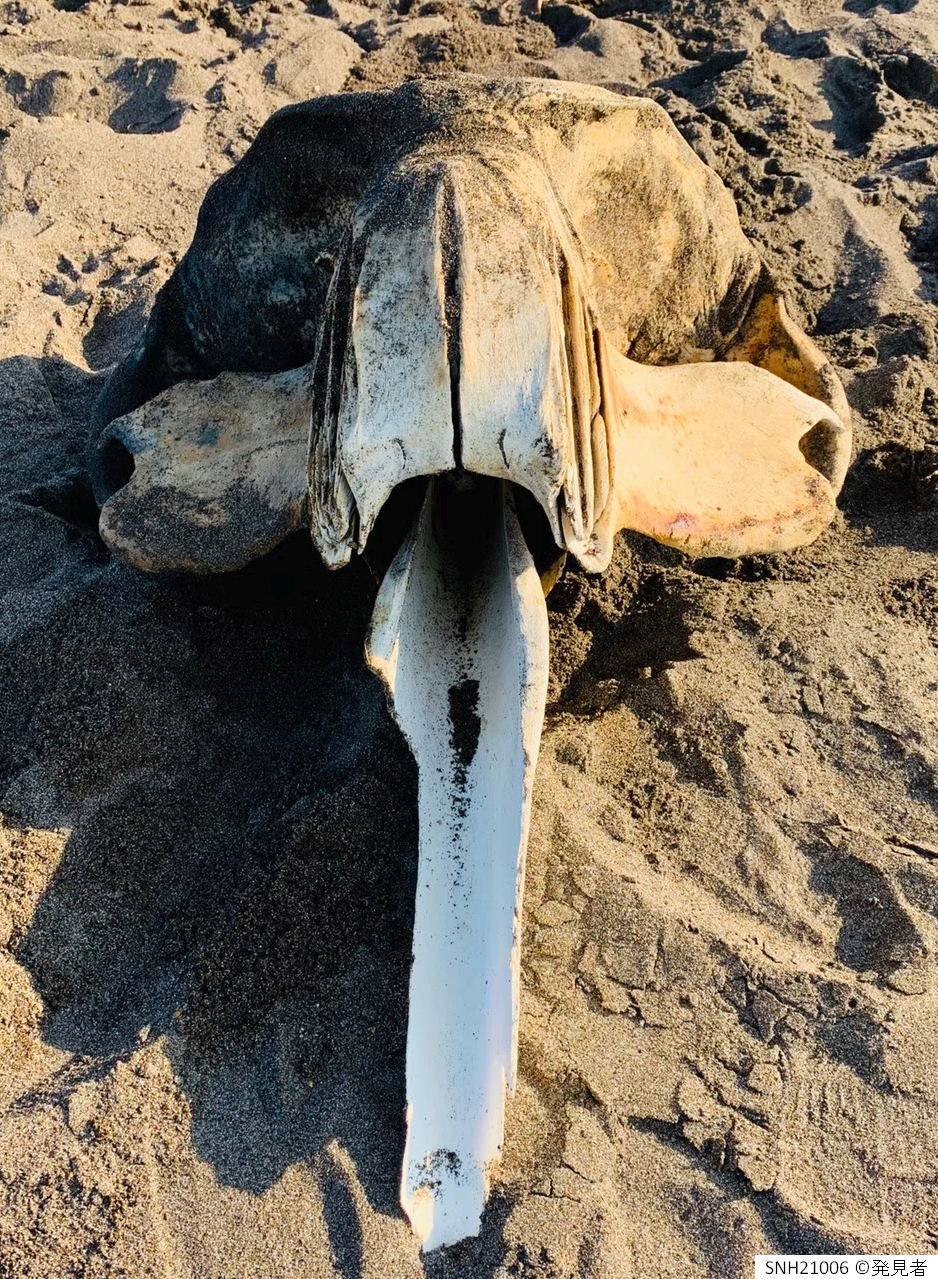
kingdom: Animalia
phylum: Chordata
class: Mammalia
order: Cetacea
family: Eschrichtiidae
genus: Eschrichtius
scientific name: Eschrichtius robustus
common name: Gray whale
